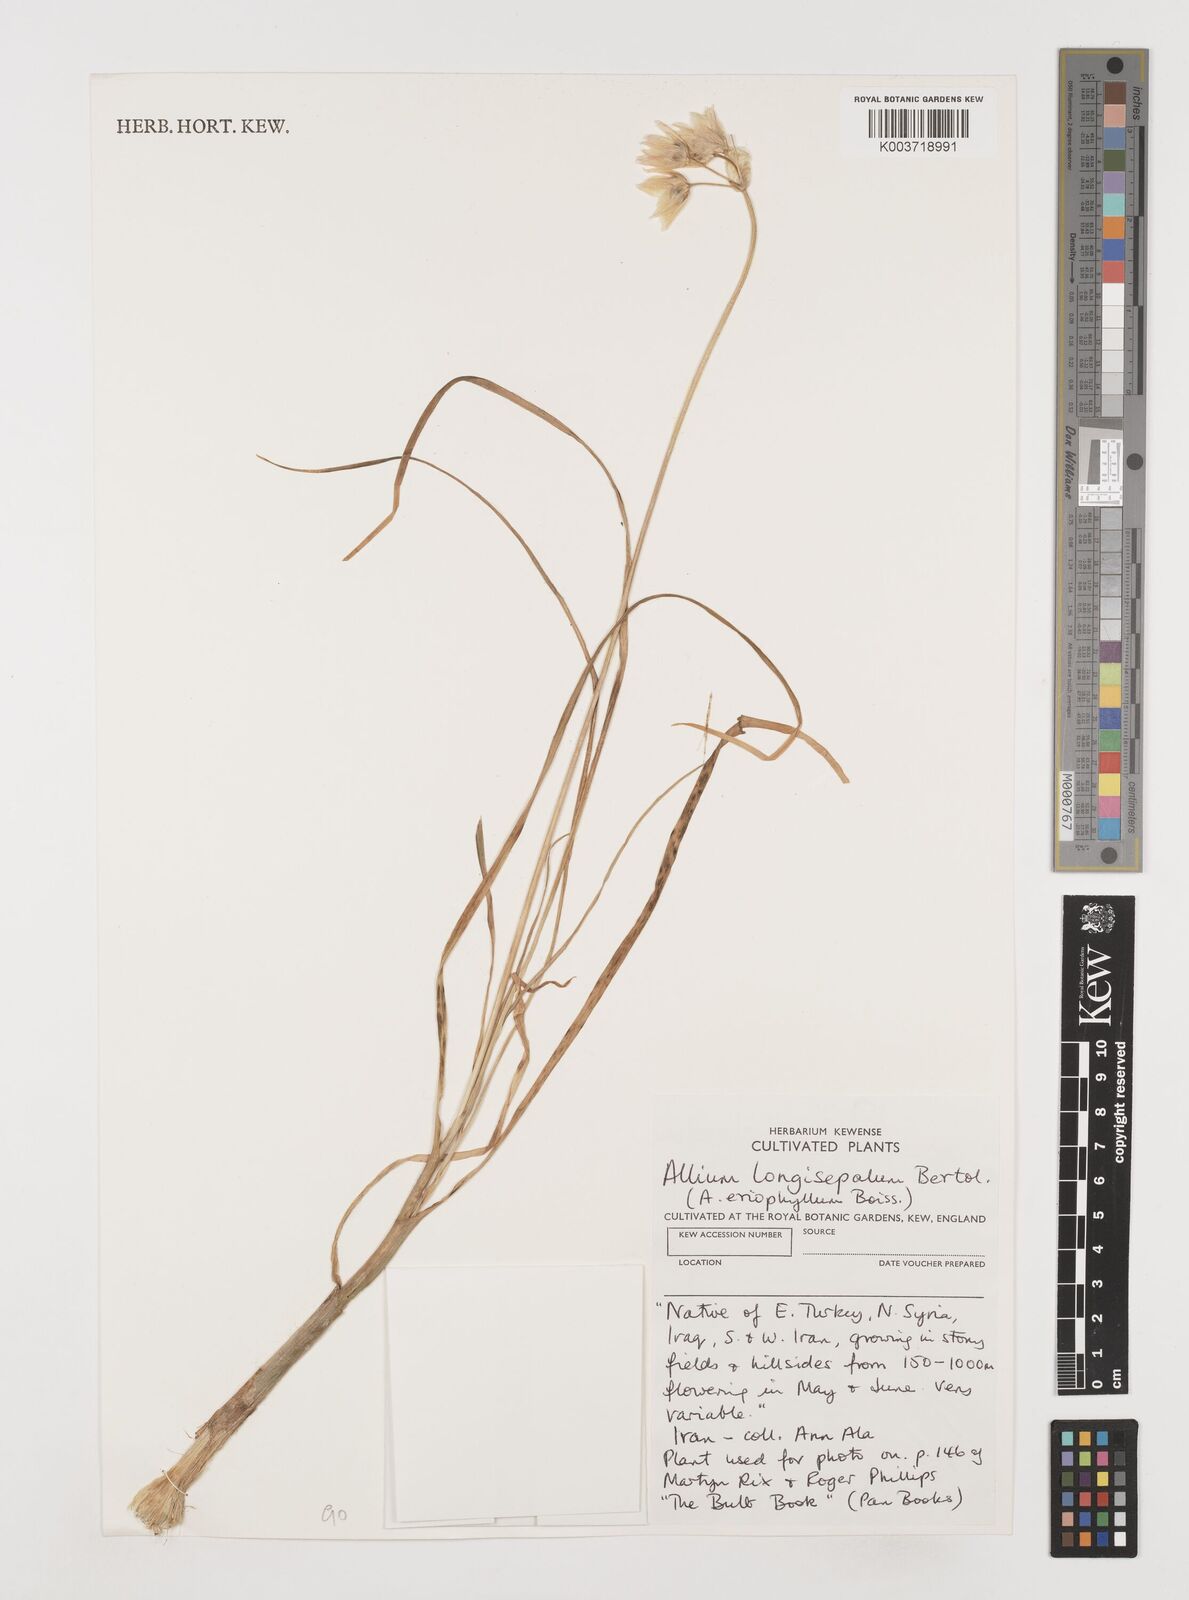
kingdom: Plantae
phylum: Tracheophyta
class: Liliopsida
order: Asparagales
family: Amaryllidaceae
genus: Allium
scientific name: Allium longisepalum
